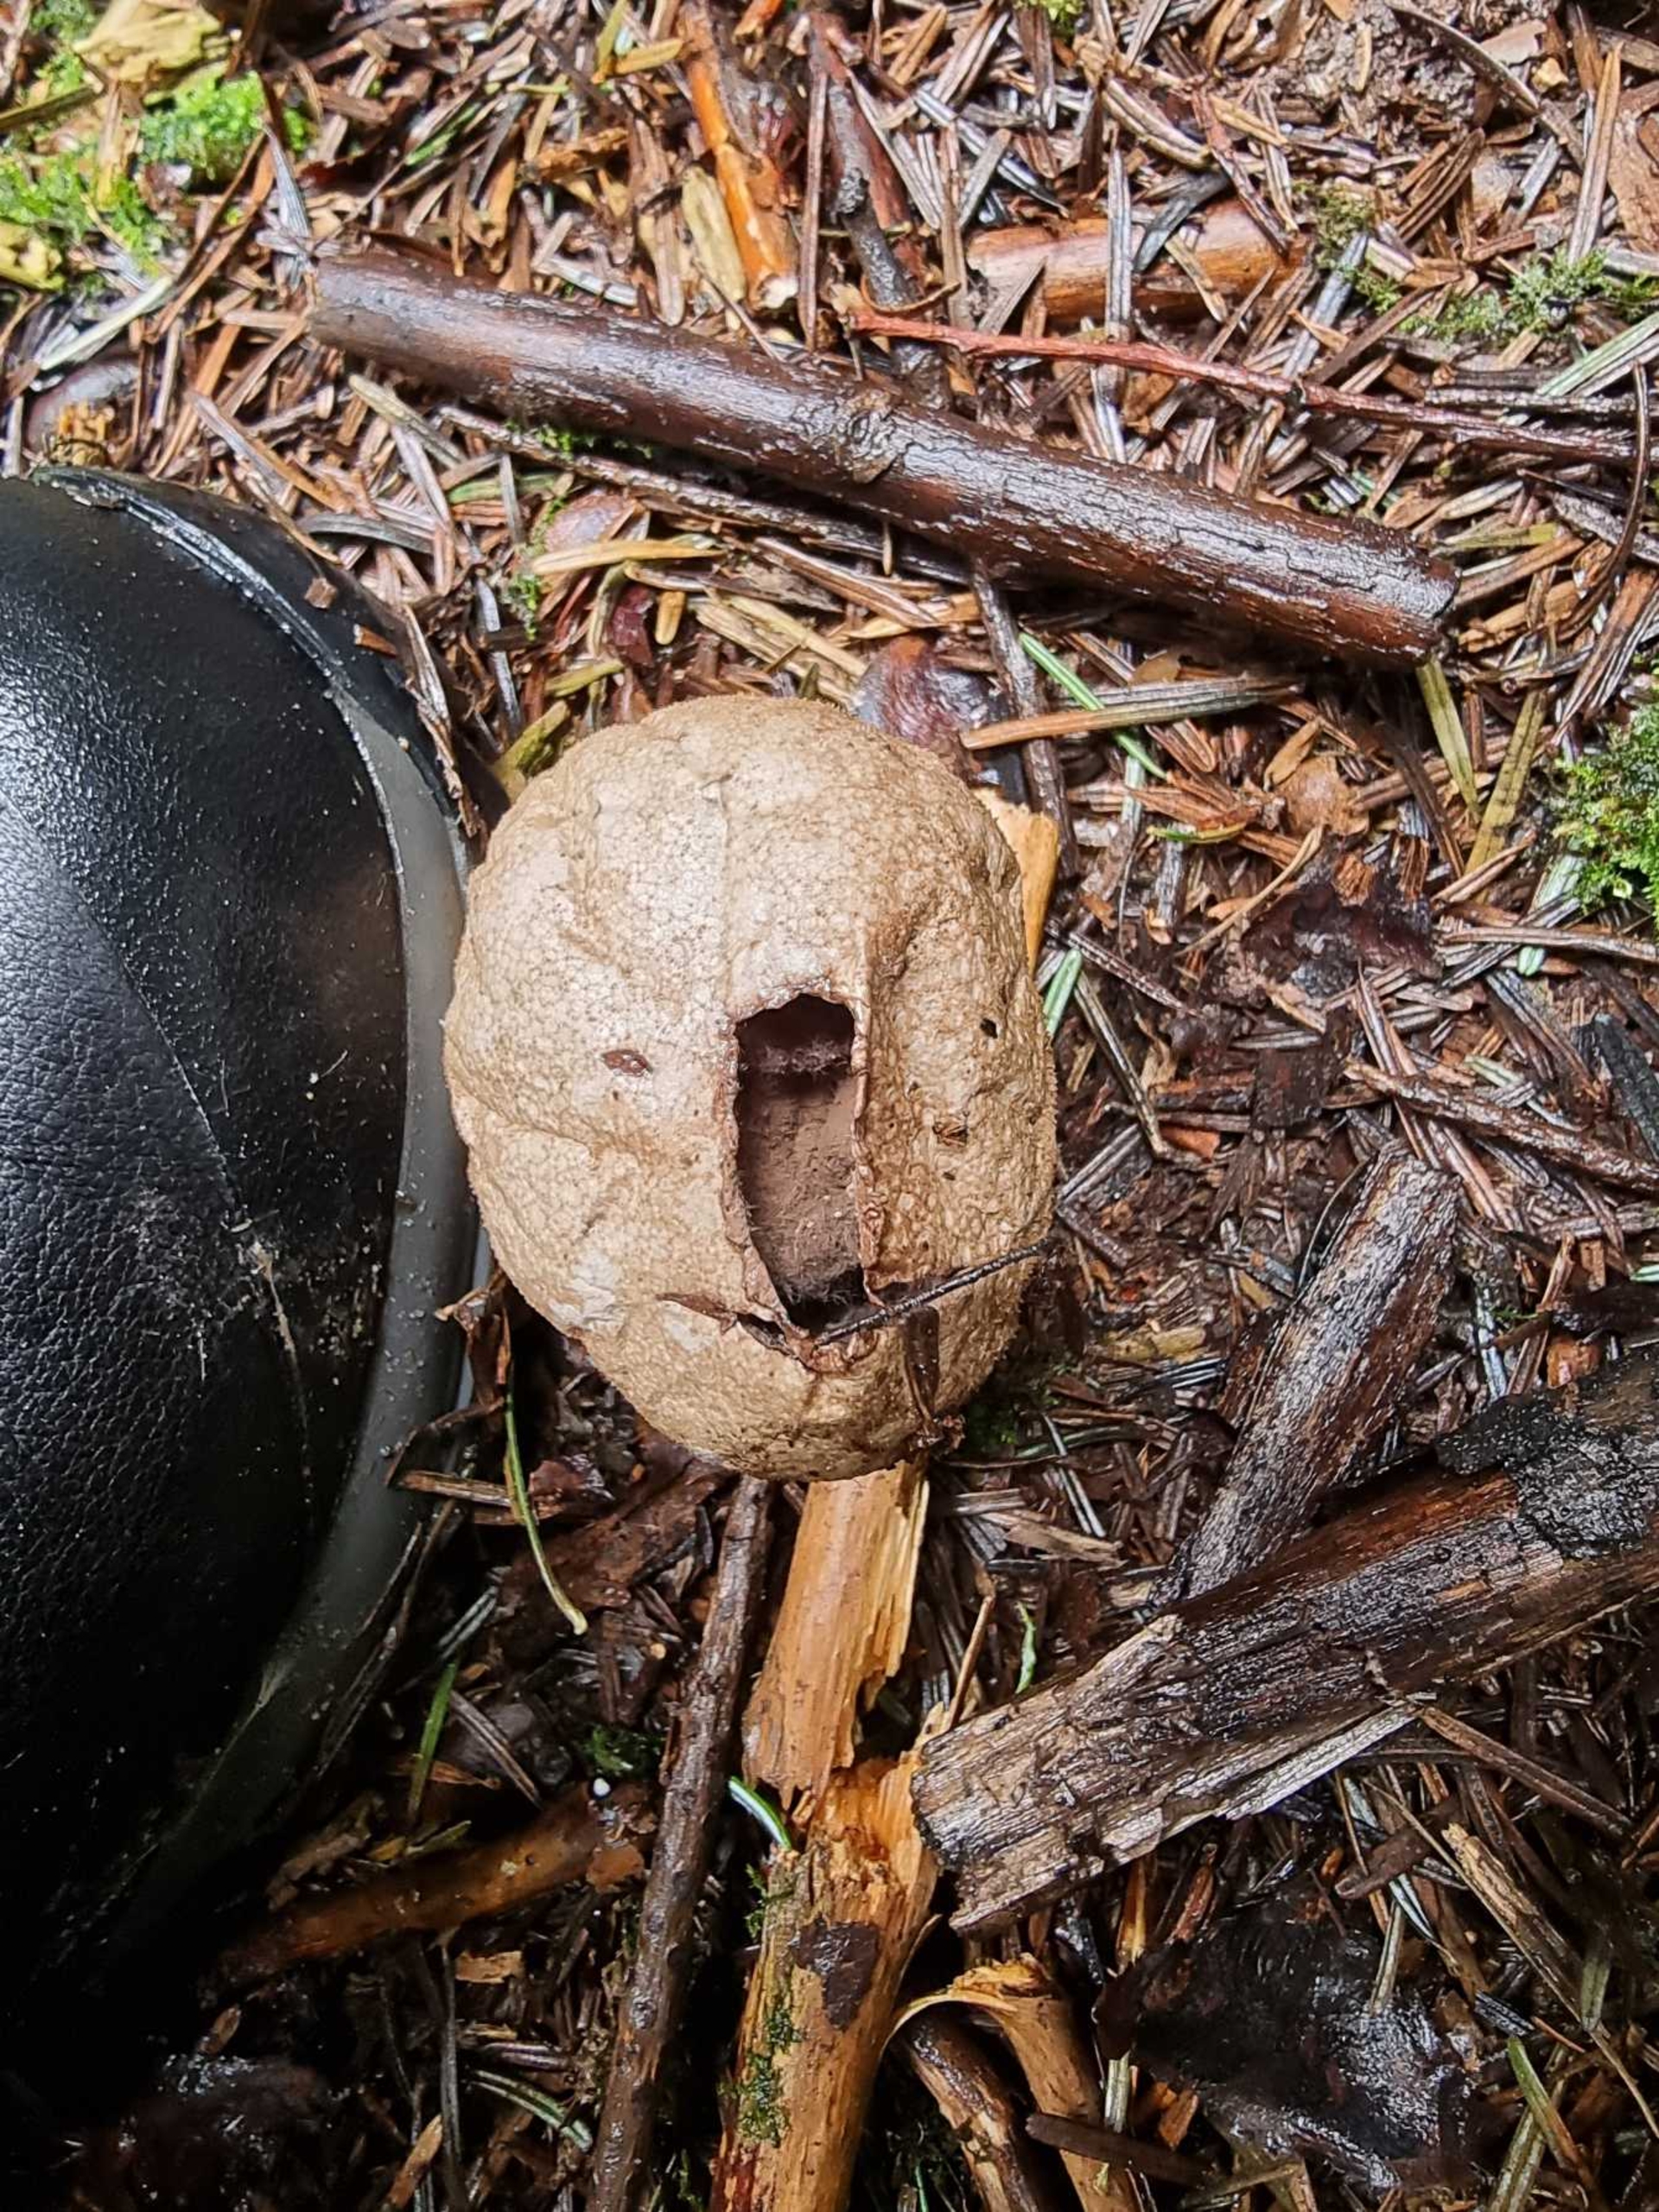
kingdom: Fungi
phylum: Basidiomycota
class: Agaricomycetes
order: Agaricales
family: Lycoperdaceae
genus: Lycoperdon
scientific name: Lycoperdon excipuliforme
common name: Højstokket støvbold
